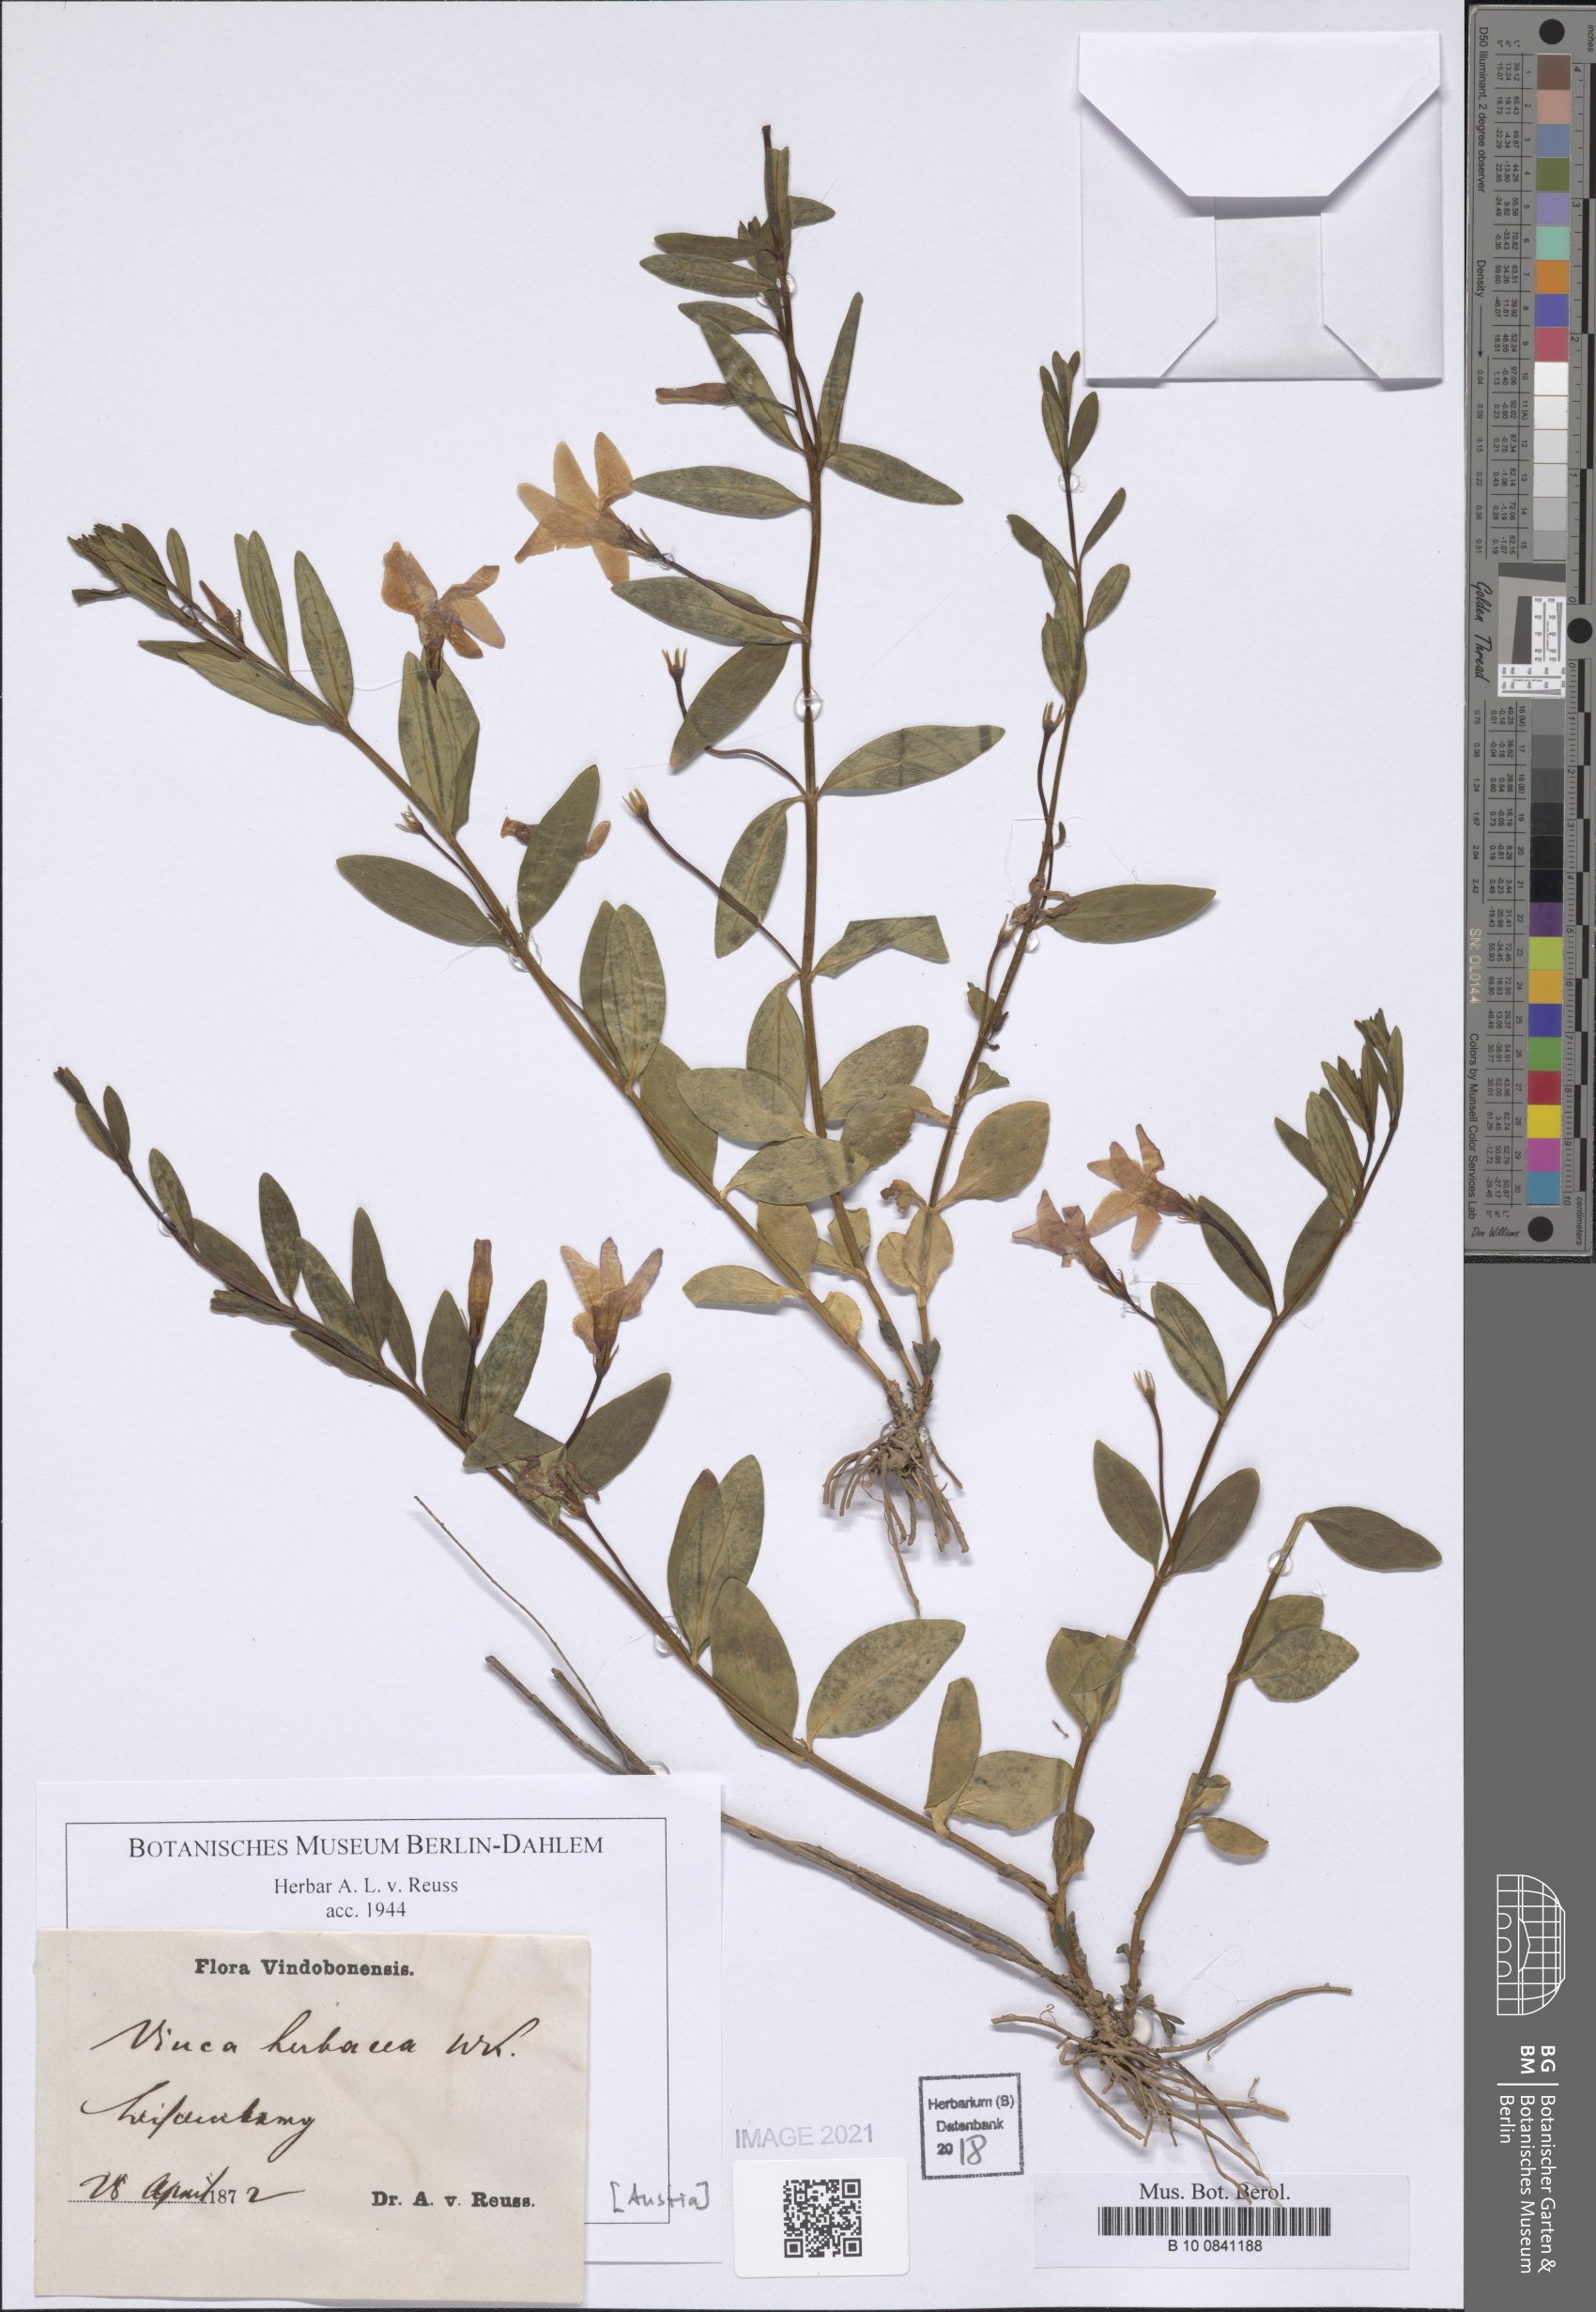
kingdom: Plantae
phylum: Tracheophyta
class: Magnoliopsida
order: Gentianales
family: Apocynaceae
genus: Vinca
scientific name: Vinca herbacea
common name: Herbaceous periwinkle
